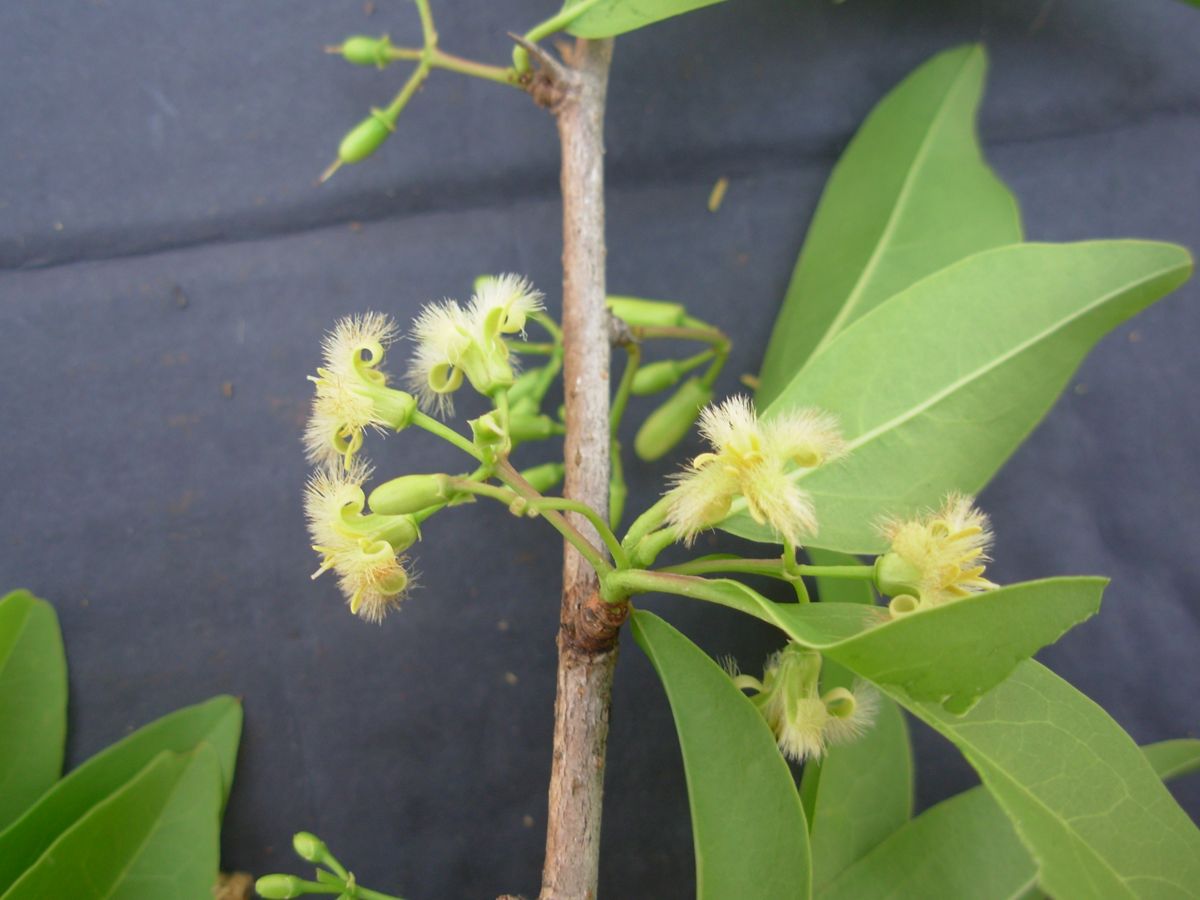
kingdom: Plantae
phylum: Tracheophyta
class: Magnoliopsida
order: Santalales
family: Ximeniaceae
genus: Ximenia
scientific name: Ximenia americana
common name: Tallowwood
